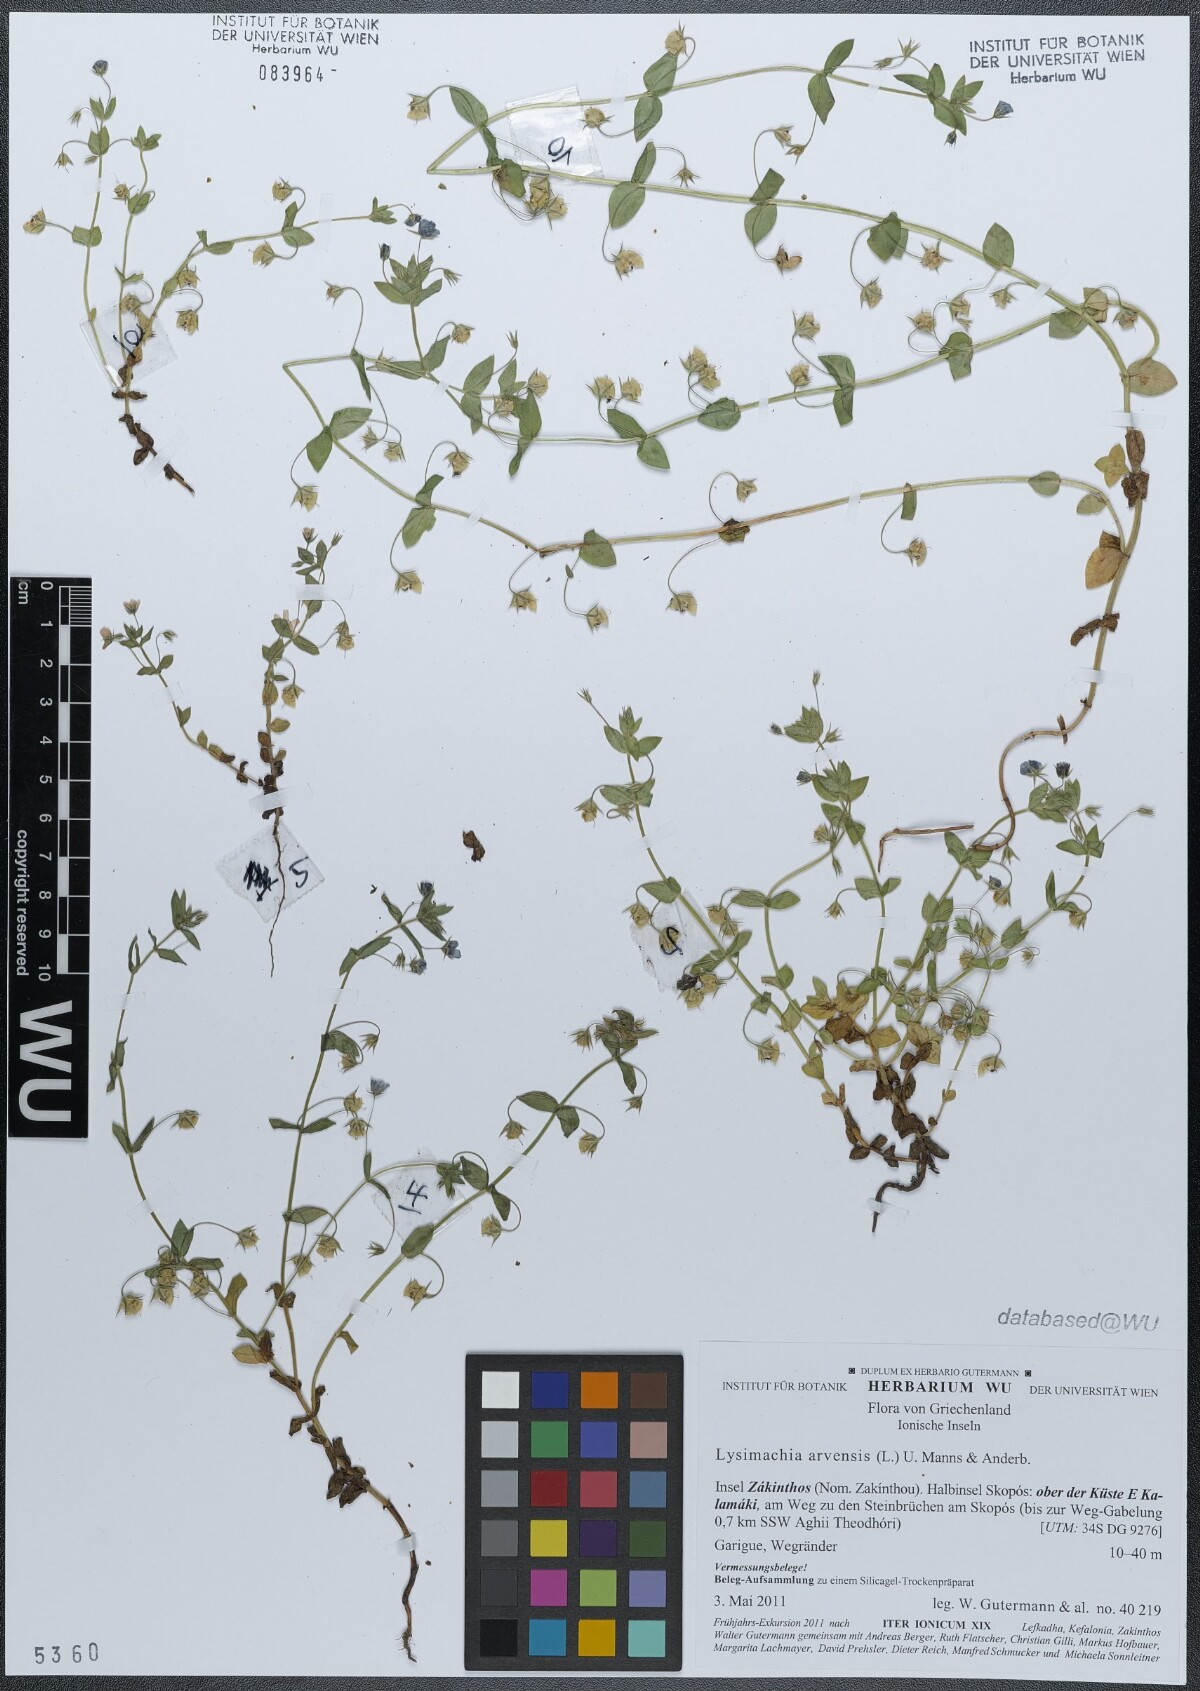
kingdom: Plantae
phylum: Tracheophyta
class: Magnoliopsida
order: Ericales
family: Primulaceae
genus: Lysimachia
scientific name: Lysimachia arvensis
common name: Scarlet pimpernel
